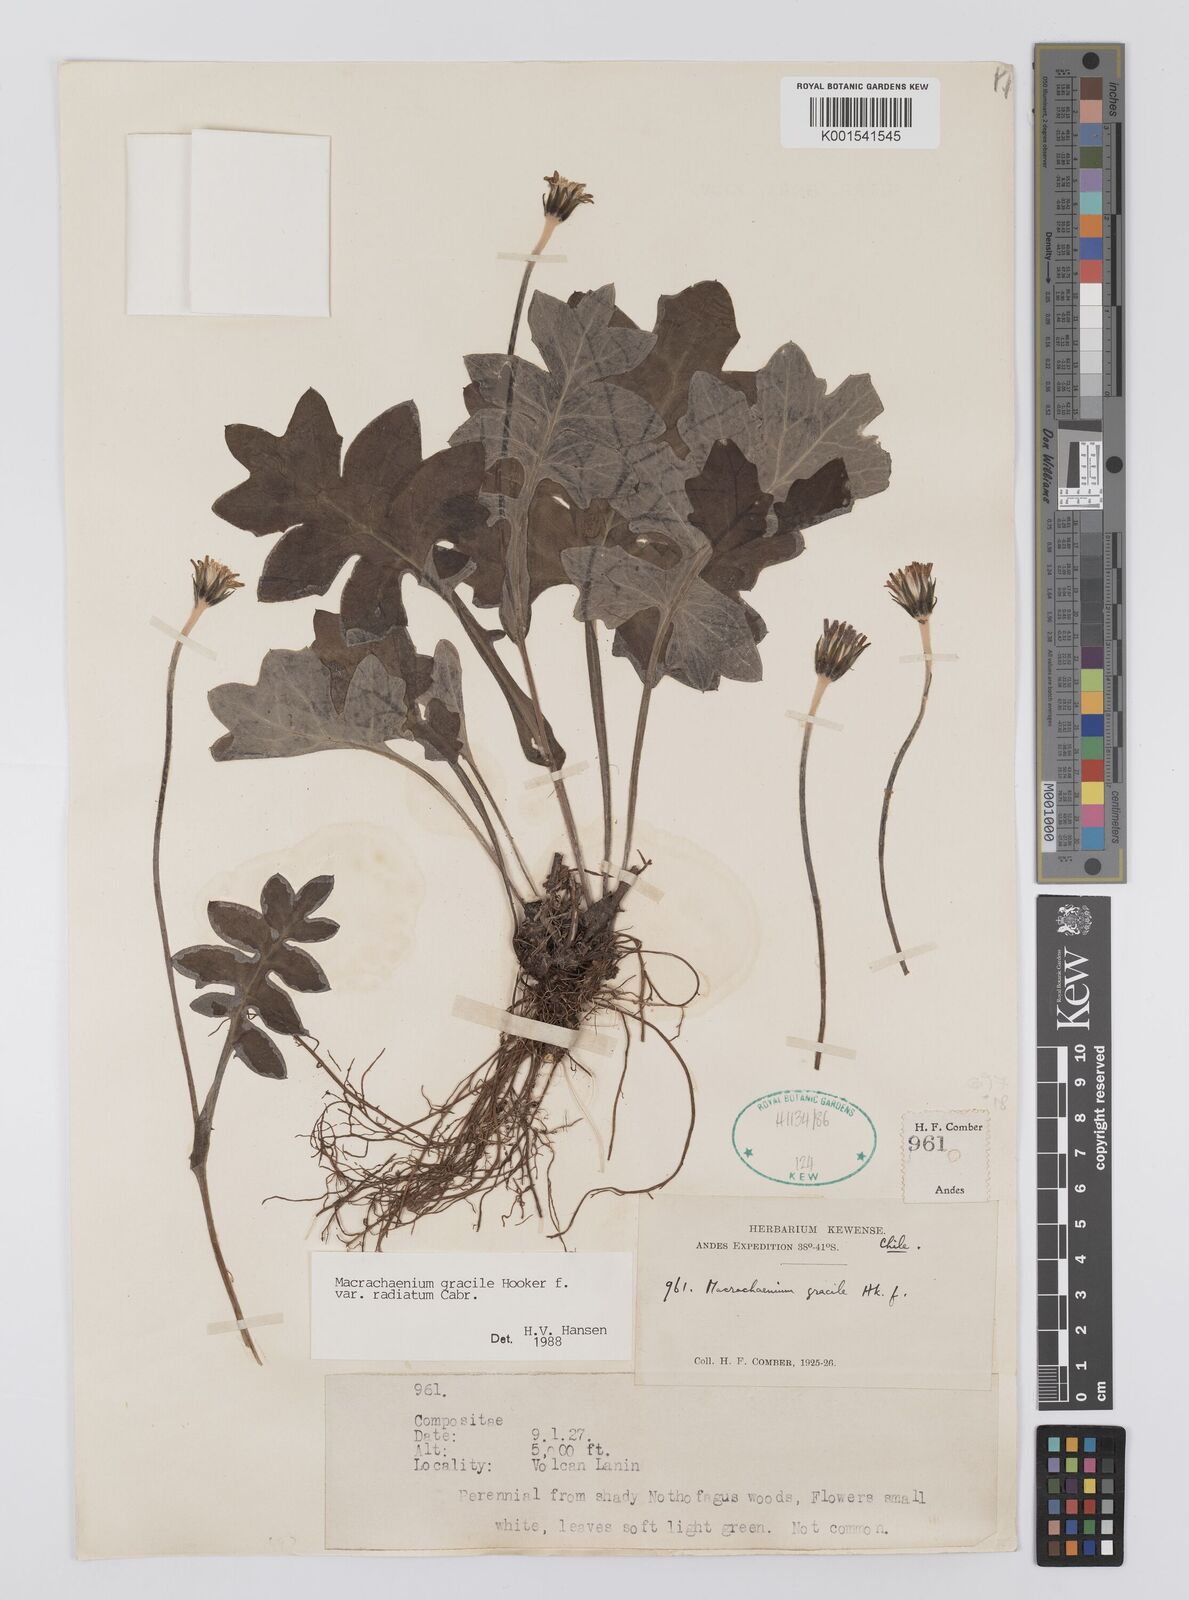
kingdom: Plantae
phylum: Tracheophyta
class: Magnoliopsida
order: Asterales
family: Asteraceae
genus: Macrachaenium
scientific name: Macrachaenium gracile
